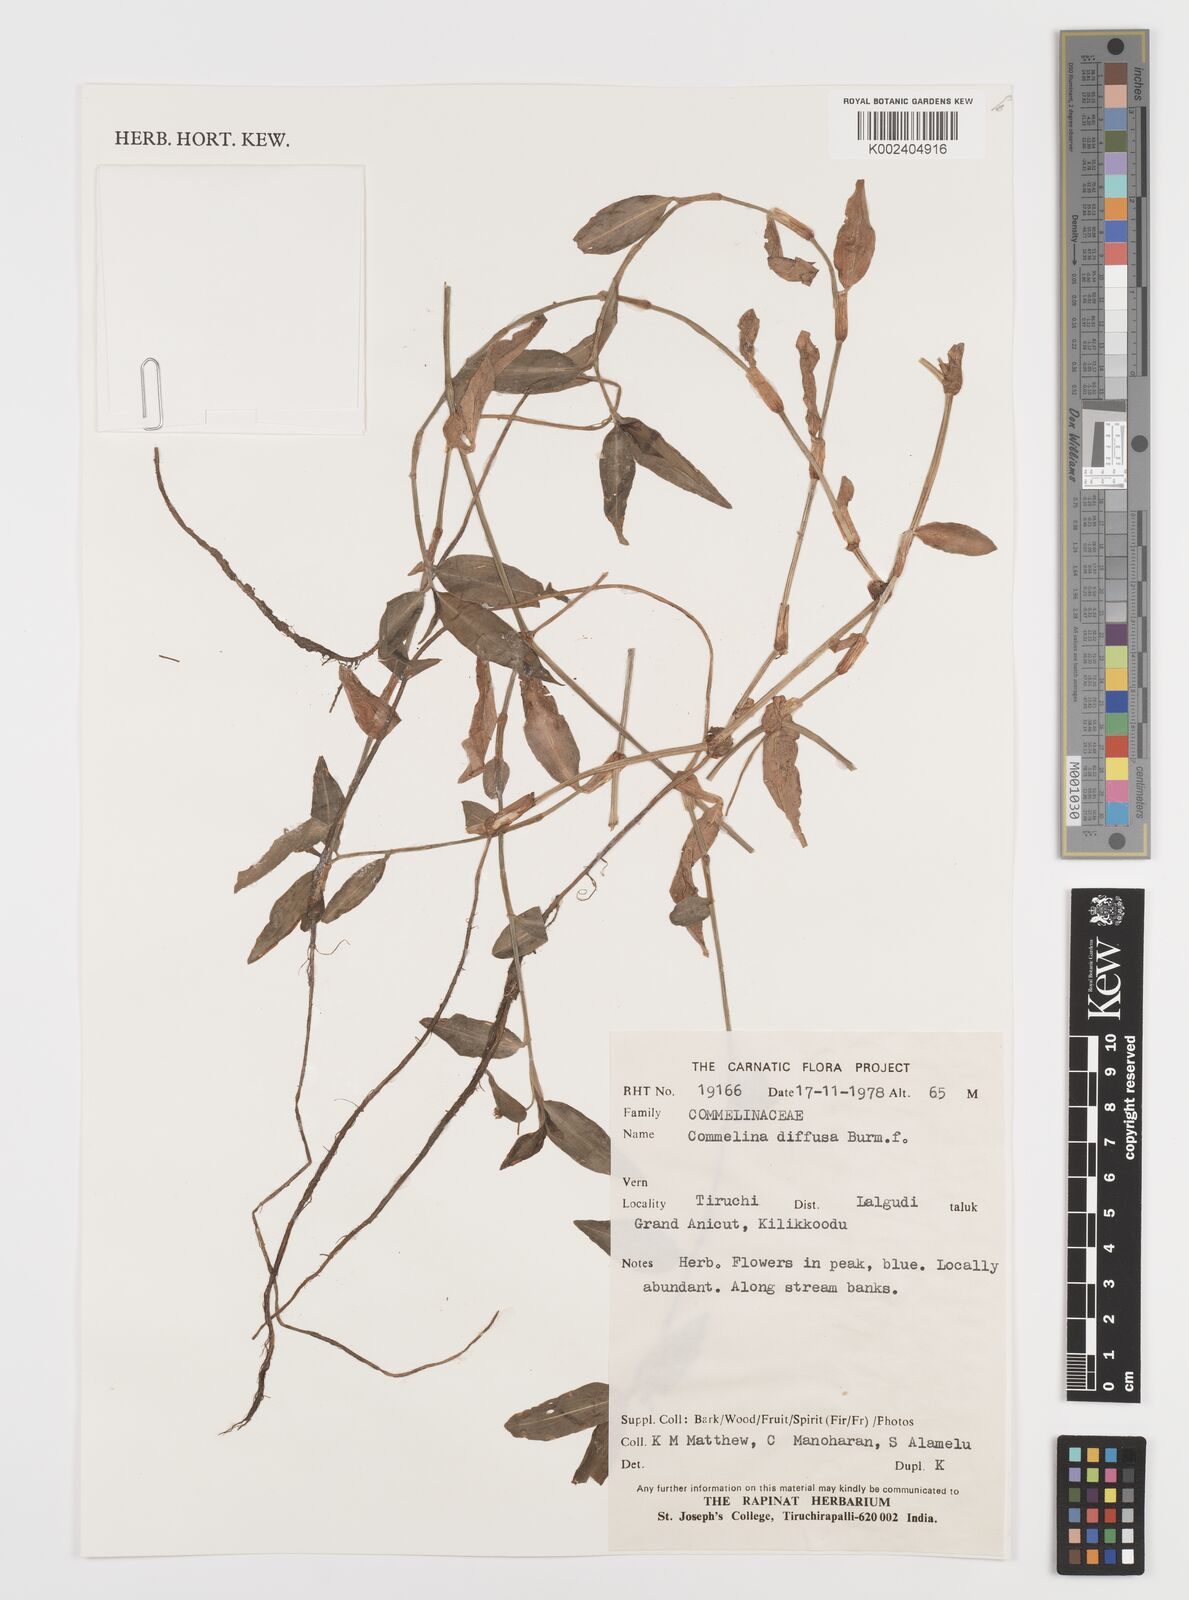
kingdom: Plantae
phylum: Tracheophyta
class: Liliopsida
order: Commelinales
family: Commelinaceae
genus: Commelina
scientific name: Commelina diffusa
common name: Climbing dayflower
